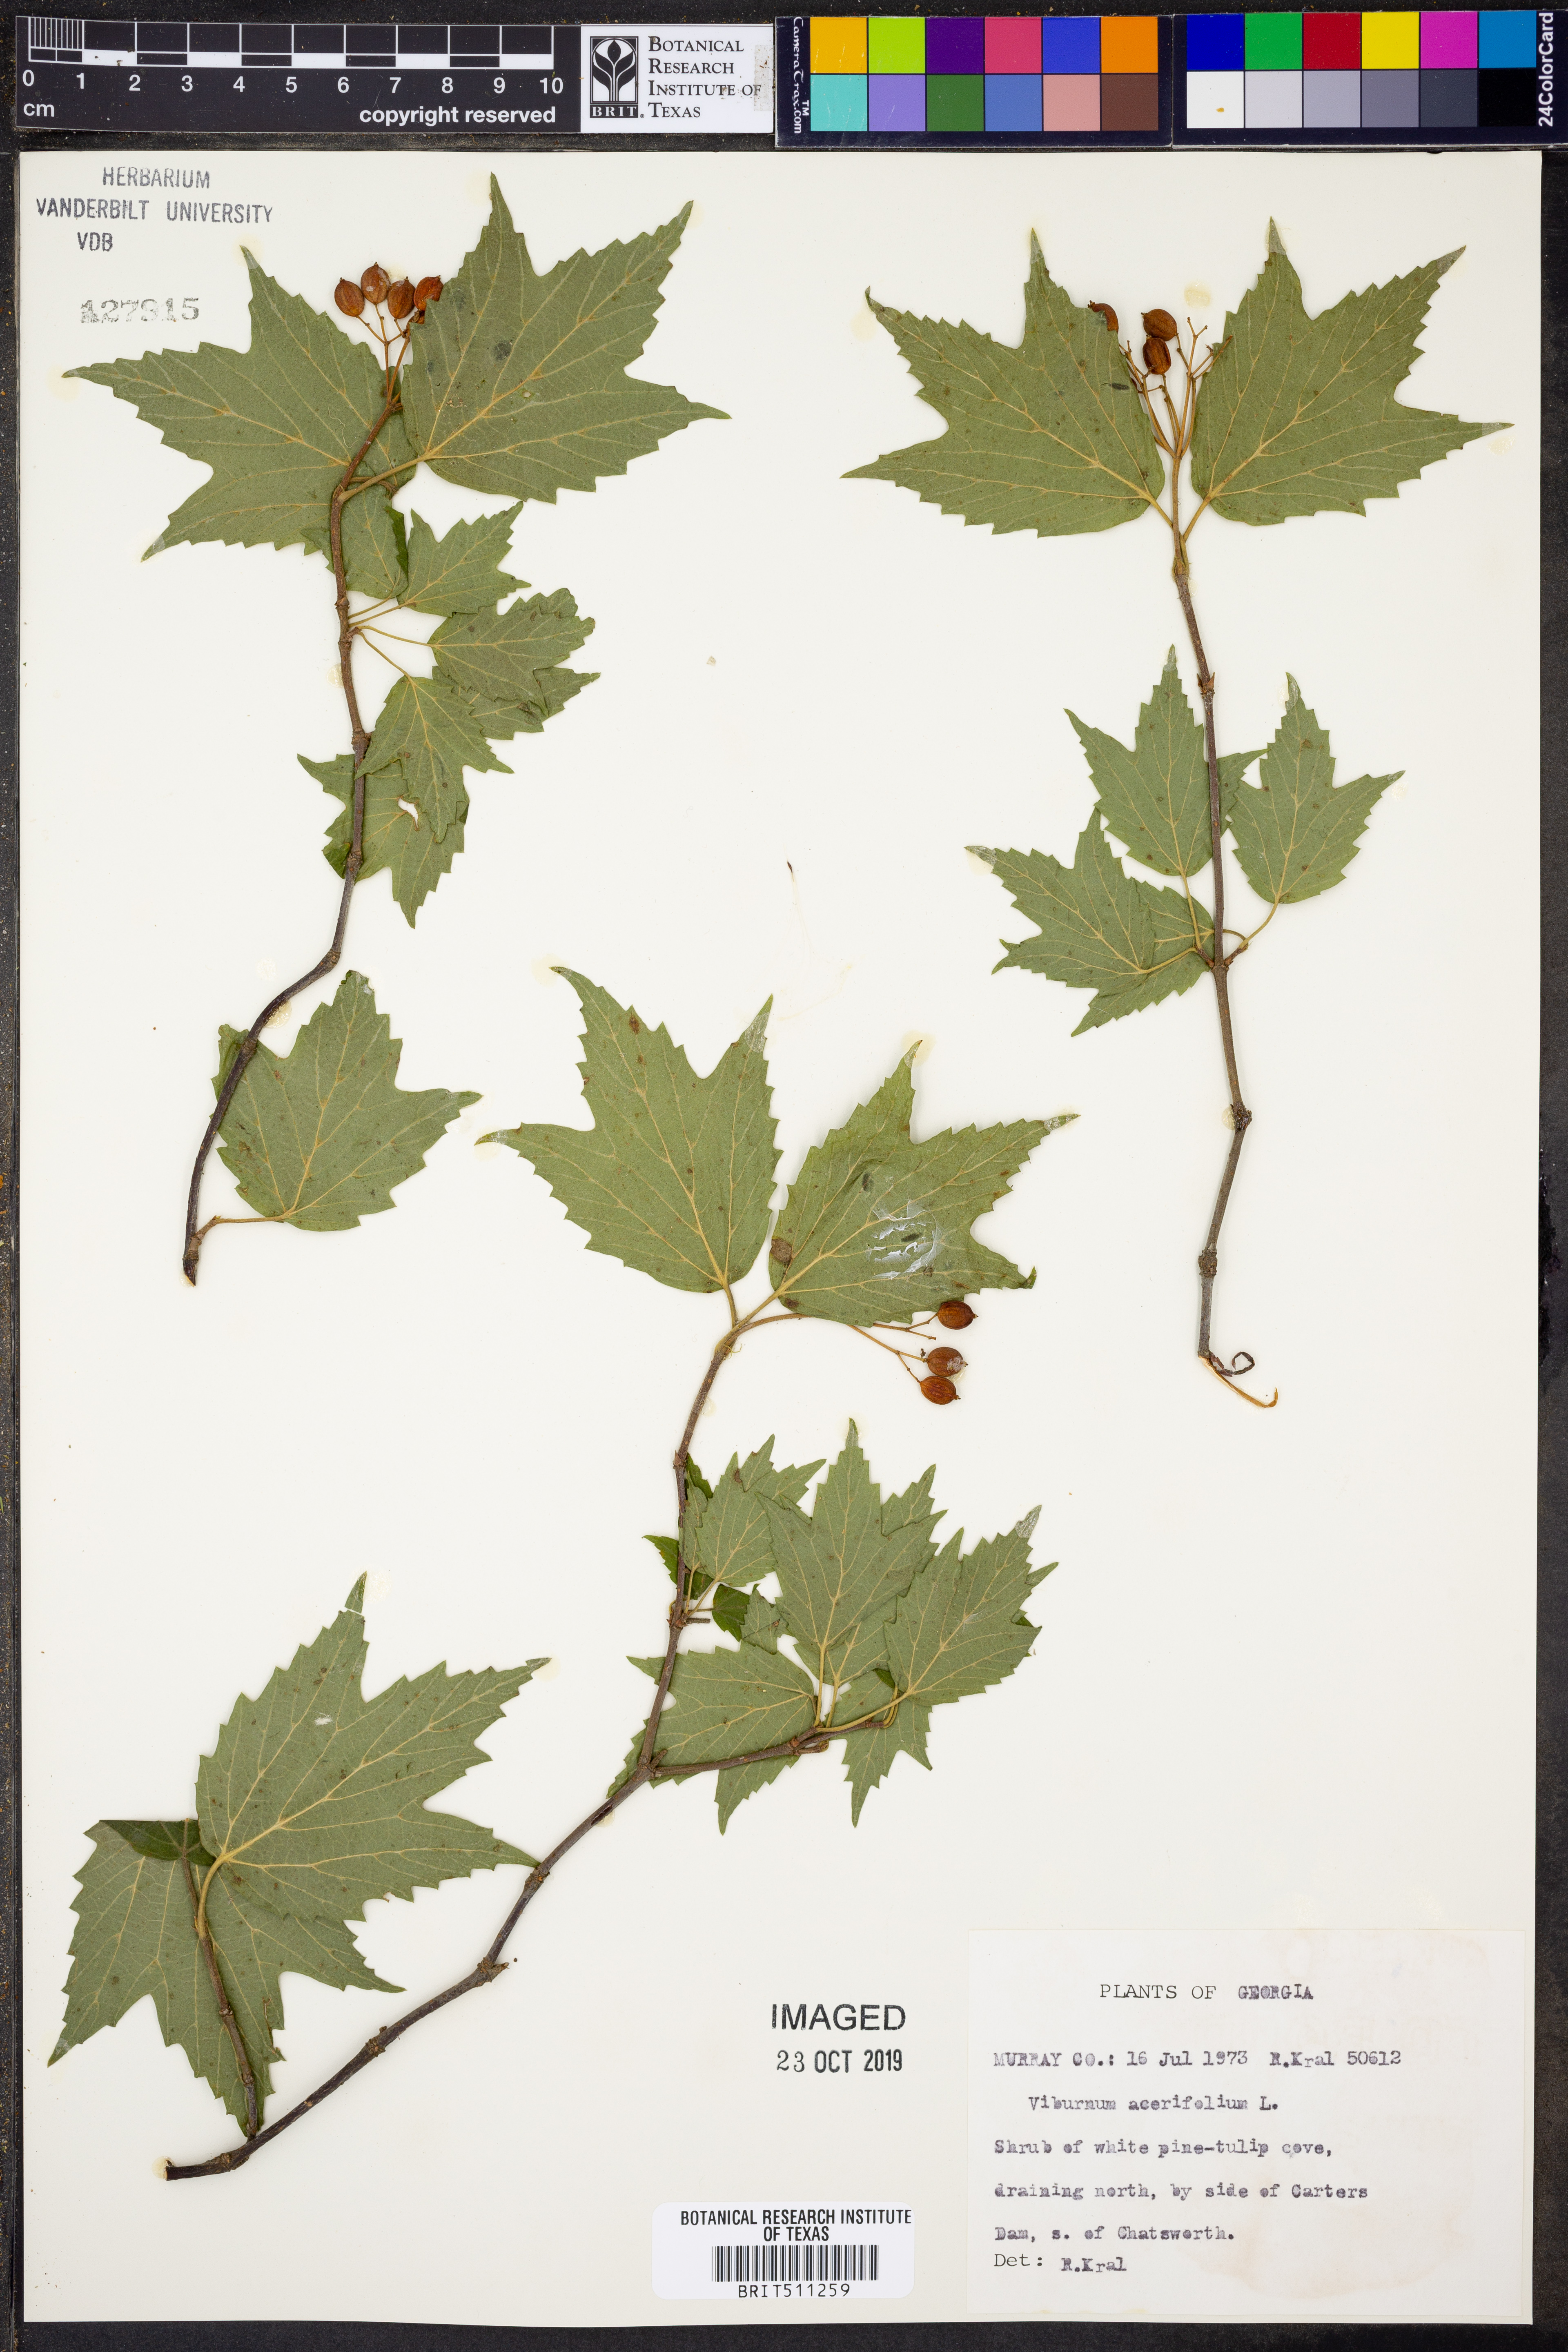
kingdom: Plantae
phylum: Tracheophyta
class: Magnoliopsida
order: Dipsacales
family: Viburnaceae
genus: Viburnum
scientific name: Viburnum acerifolium
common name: Dockmackie
